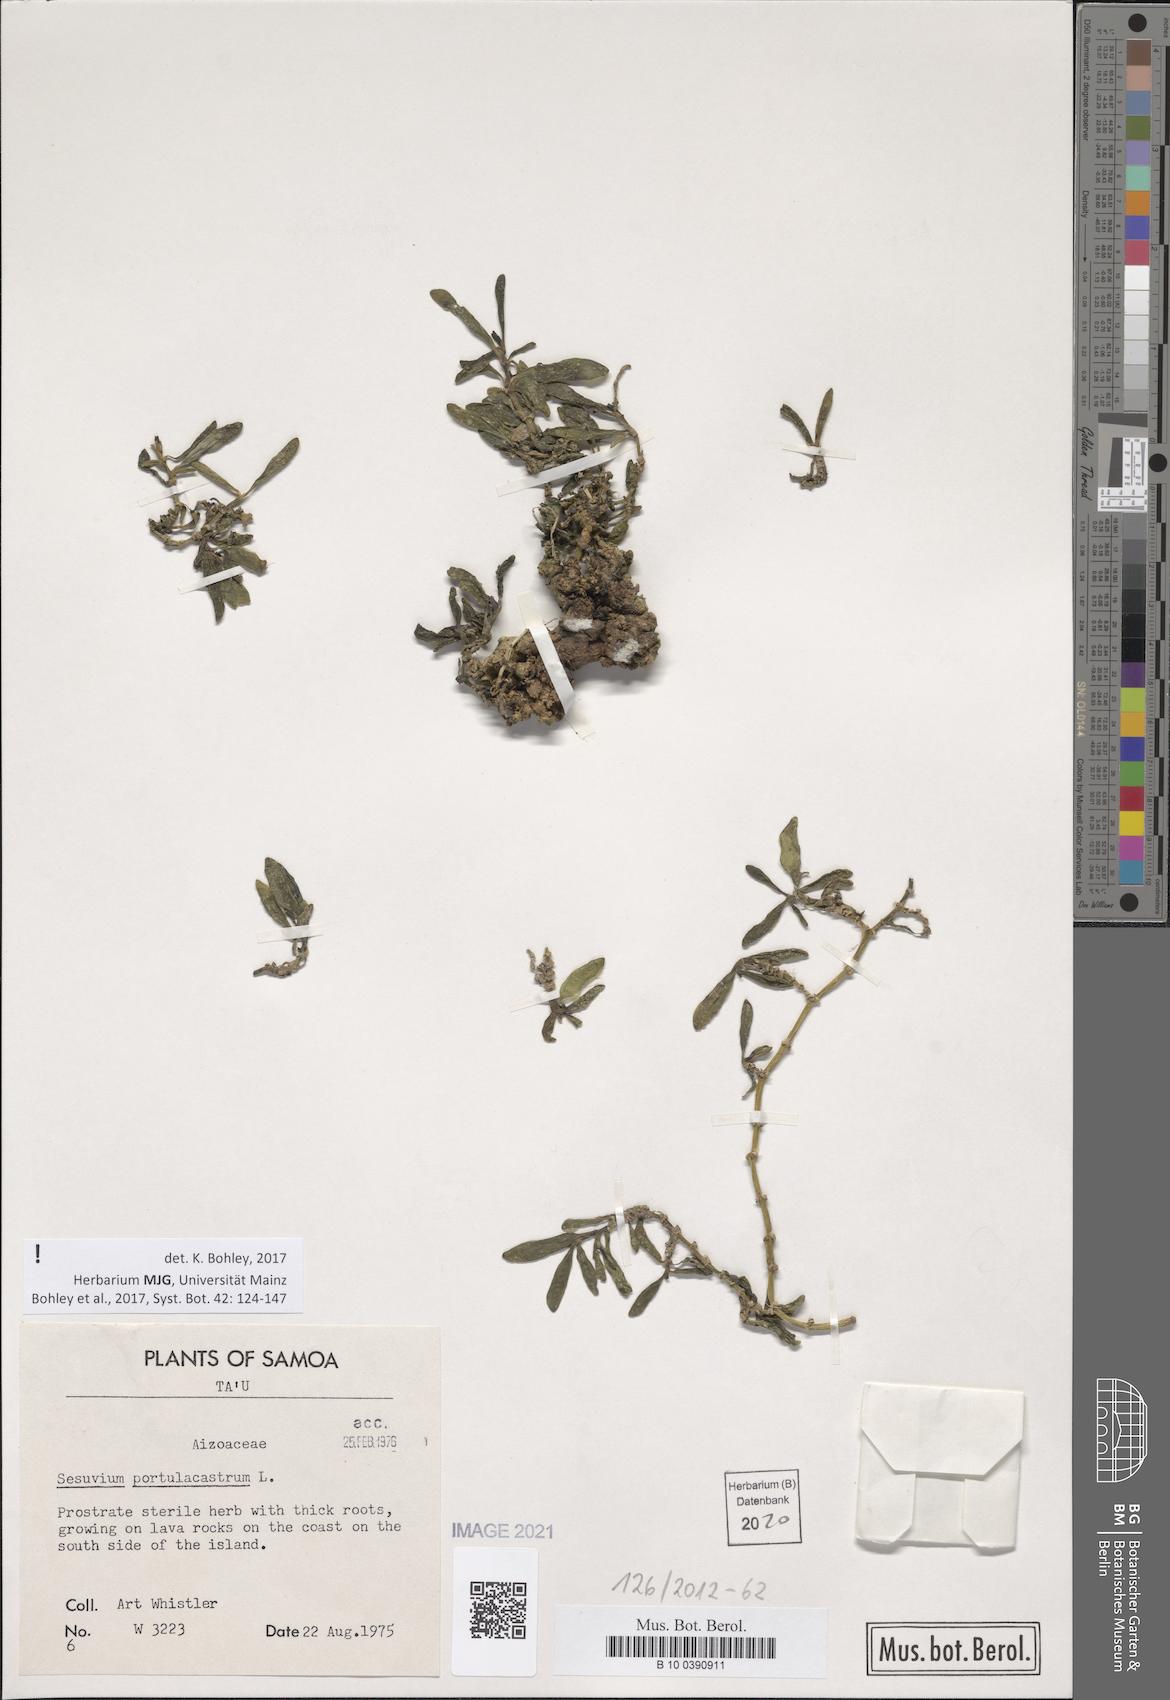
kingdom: Plantae
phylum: Tracheophyta
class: Magnoliopsida
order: Caryophyllales
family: Aizoaceae
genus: Sesuvium
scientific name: Sesuvium portulacastrum
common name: Sea-purslane
